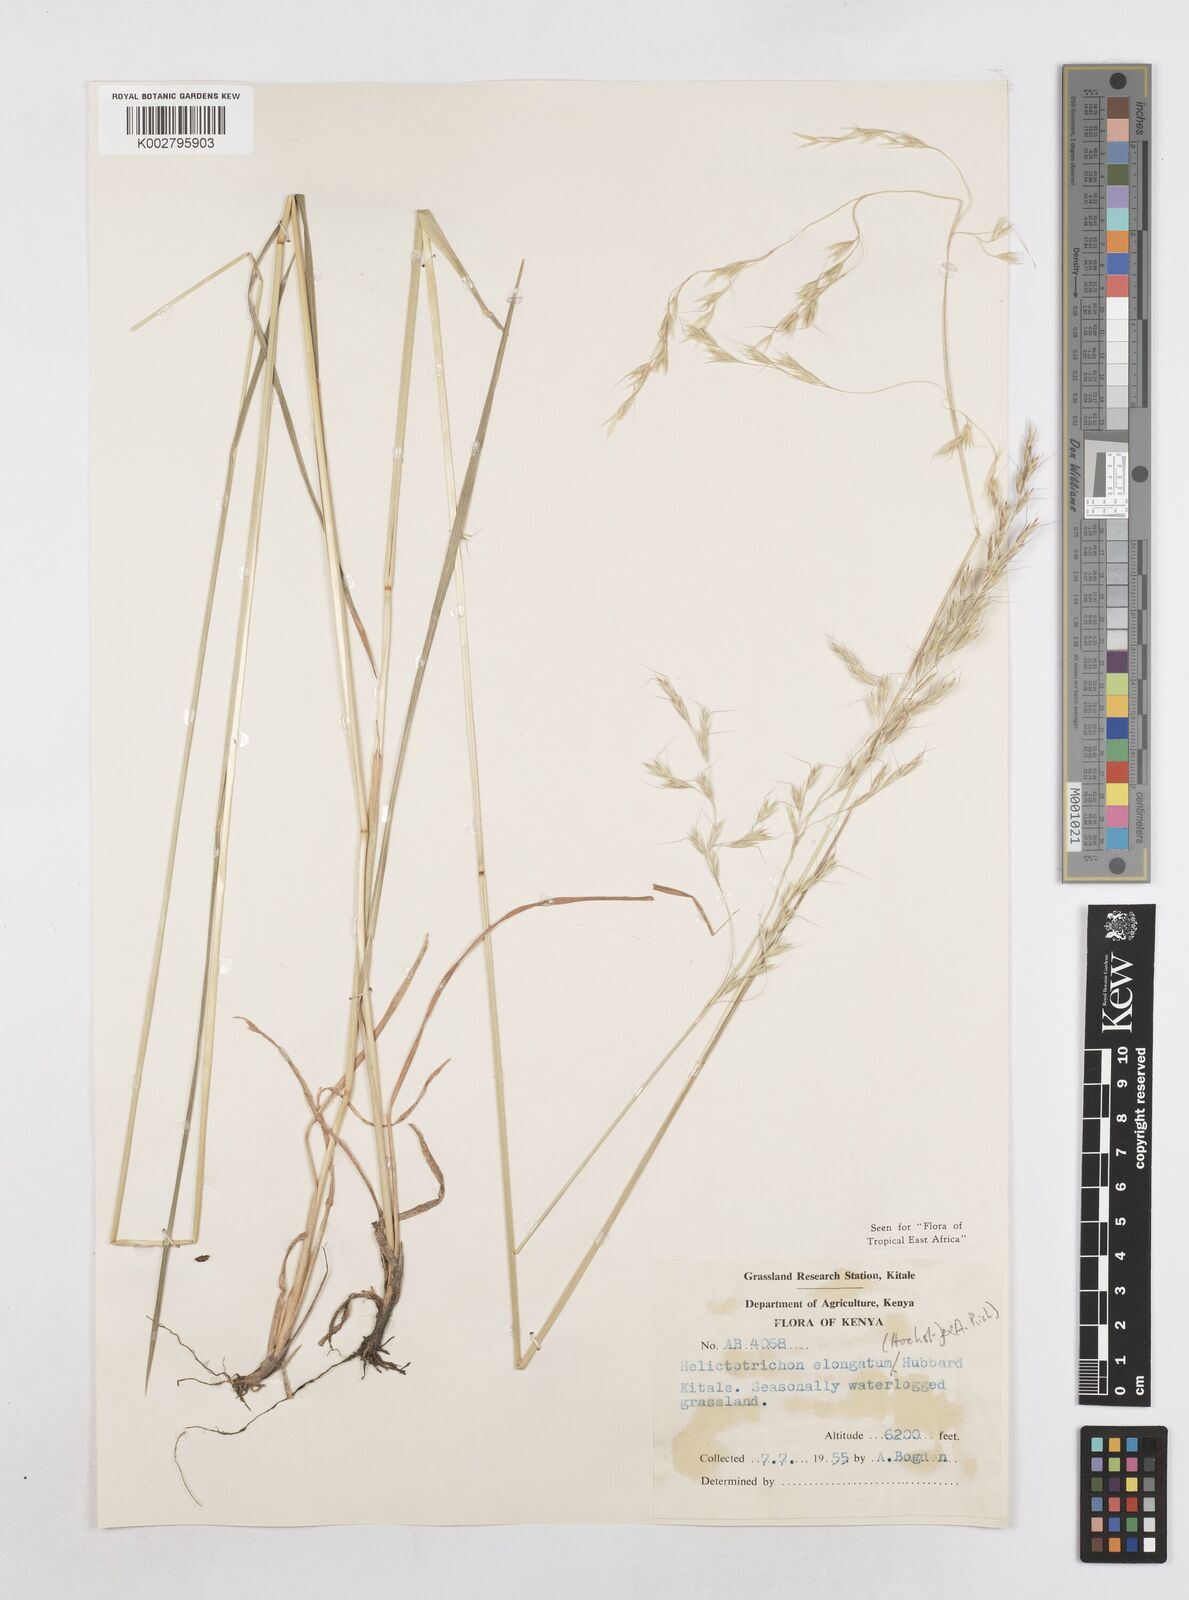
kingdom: Plantae
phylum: Tracheophyta
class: Liliopsida
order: Poales
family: Poaceae
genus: Trisetopsis
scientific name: Trisetopsis elongata
